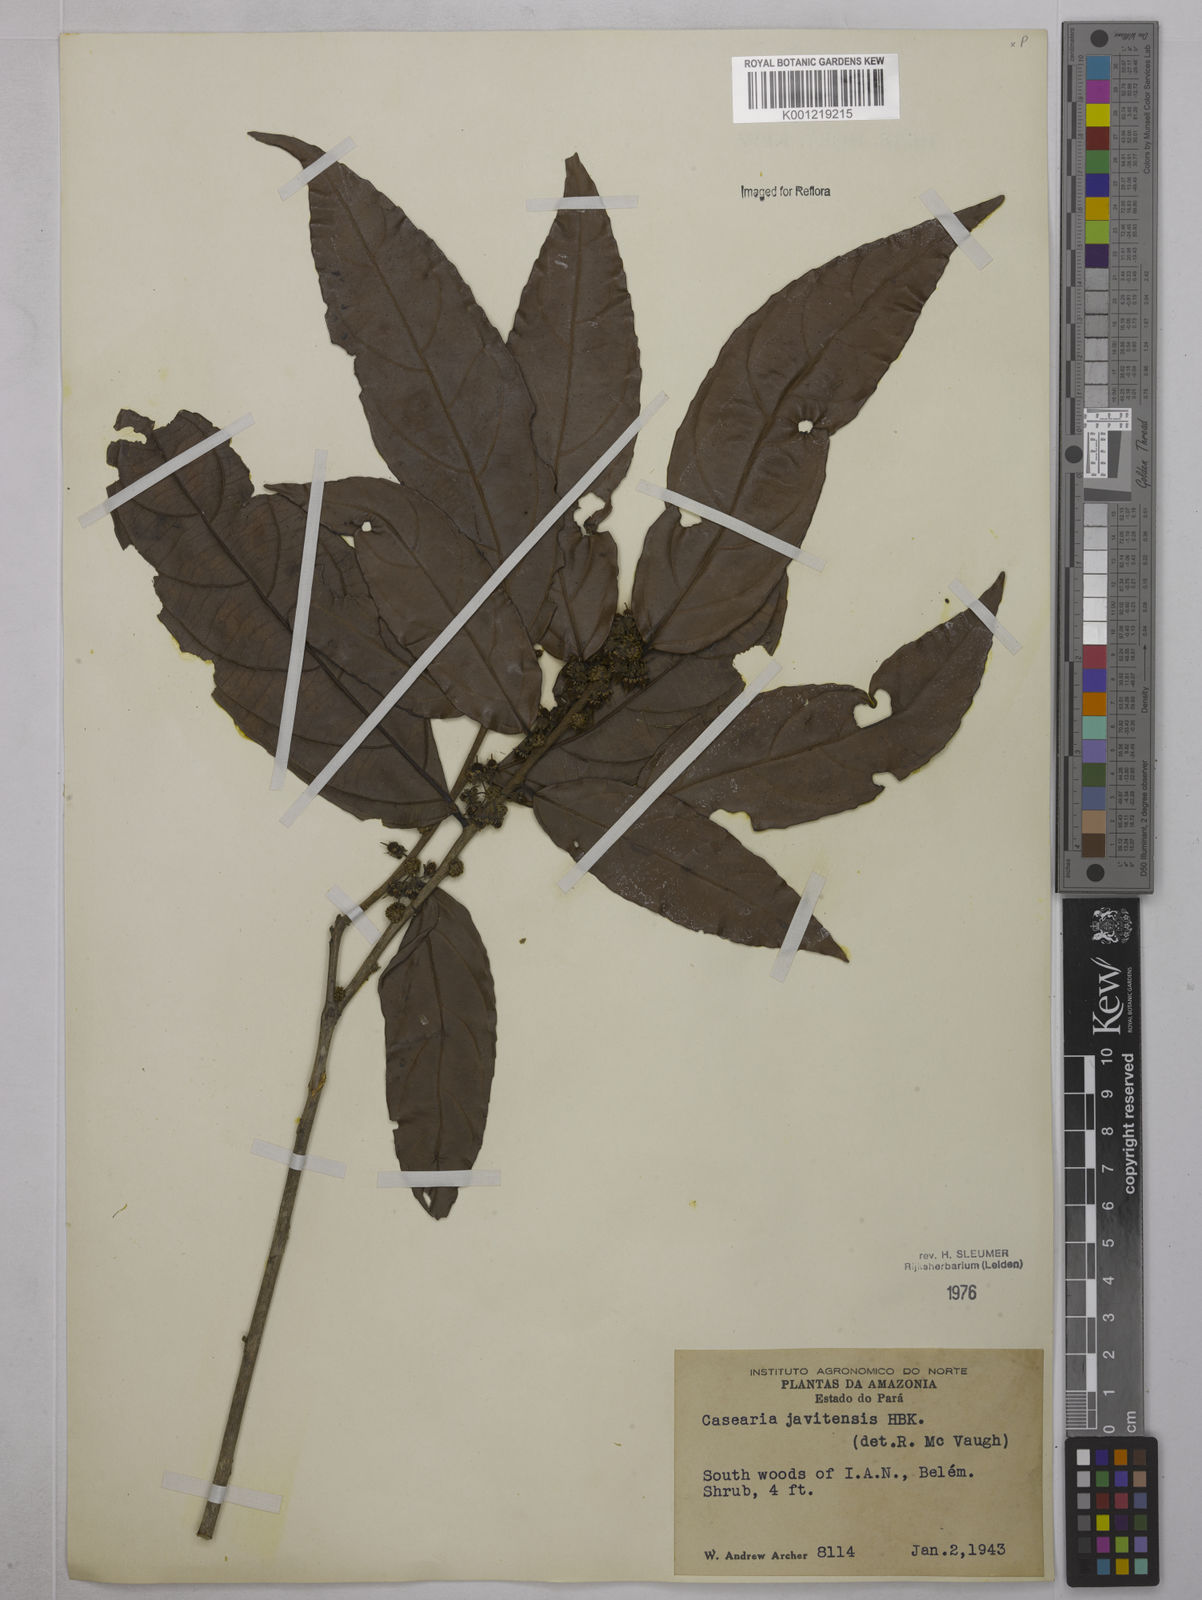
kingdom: Plantae
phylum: Tracheophyta
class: Magnoliopsida
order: Malpighiales
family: Salicaceae
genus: Piparea
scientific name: Piparea multiflora
